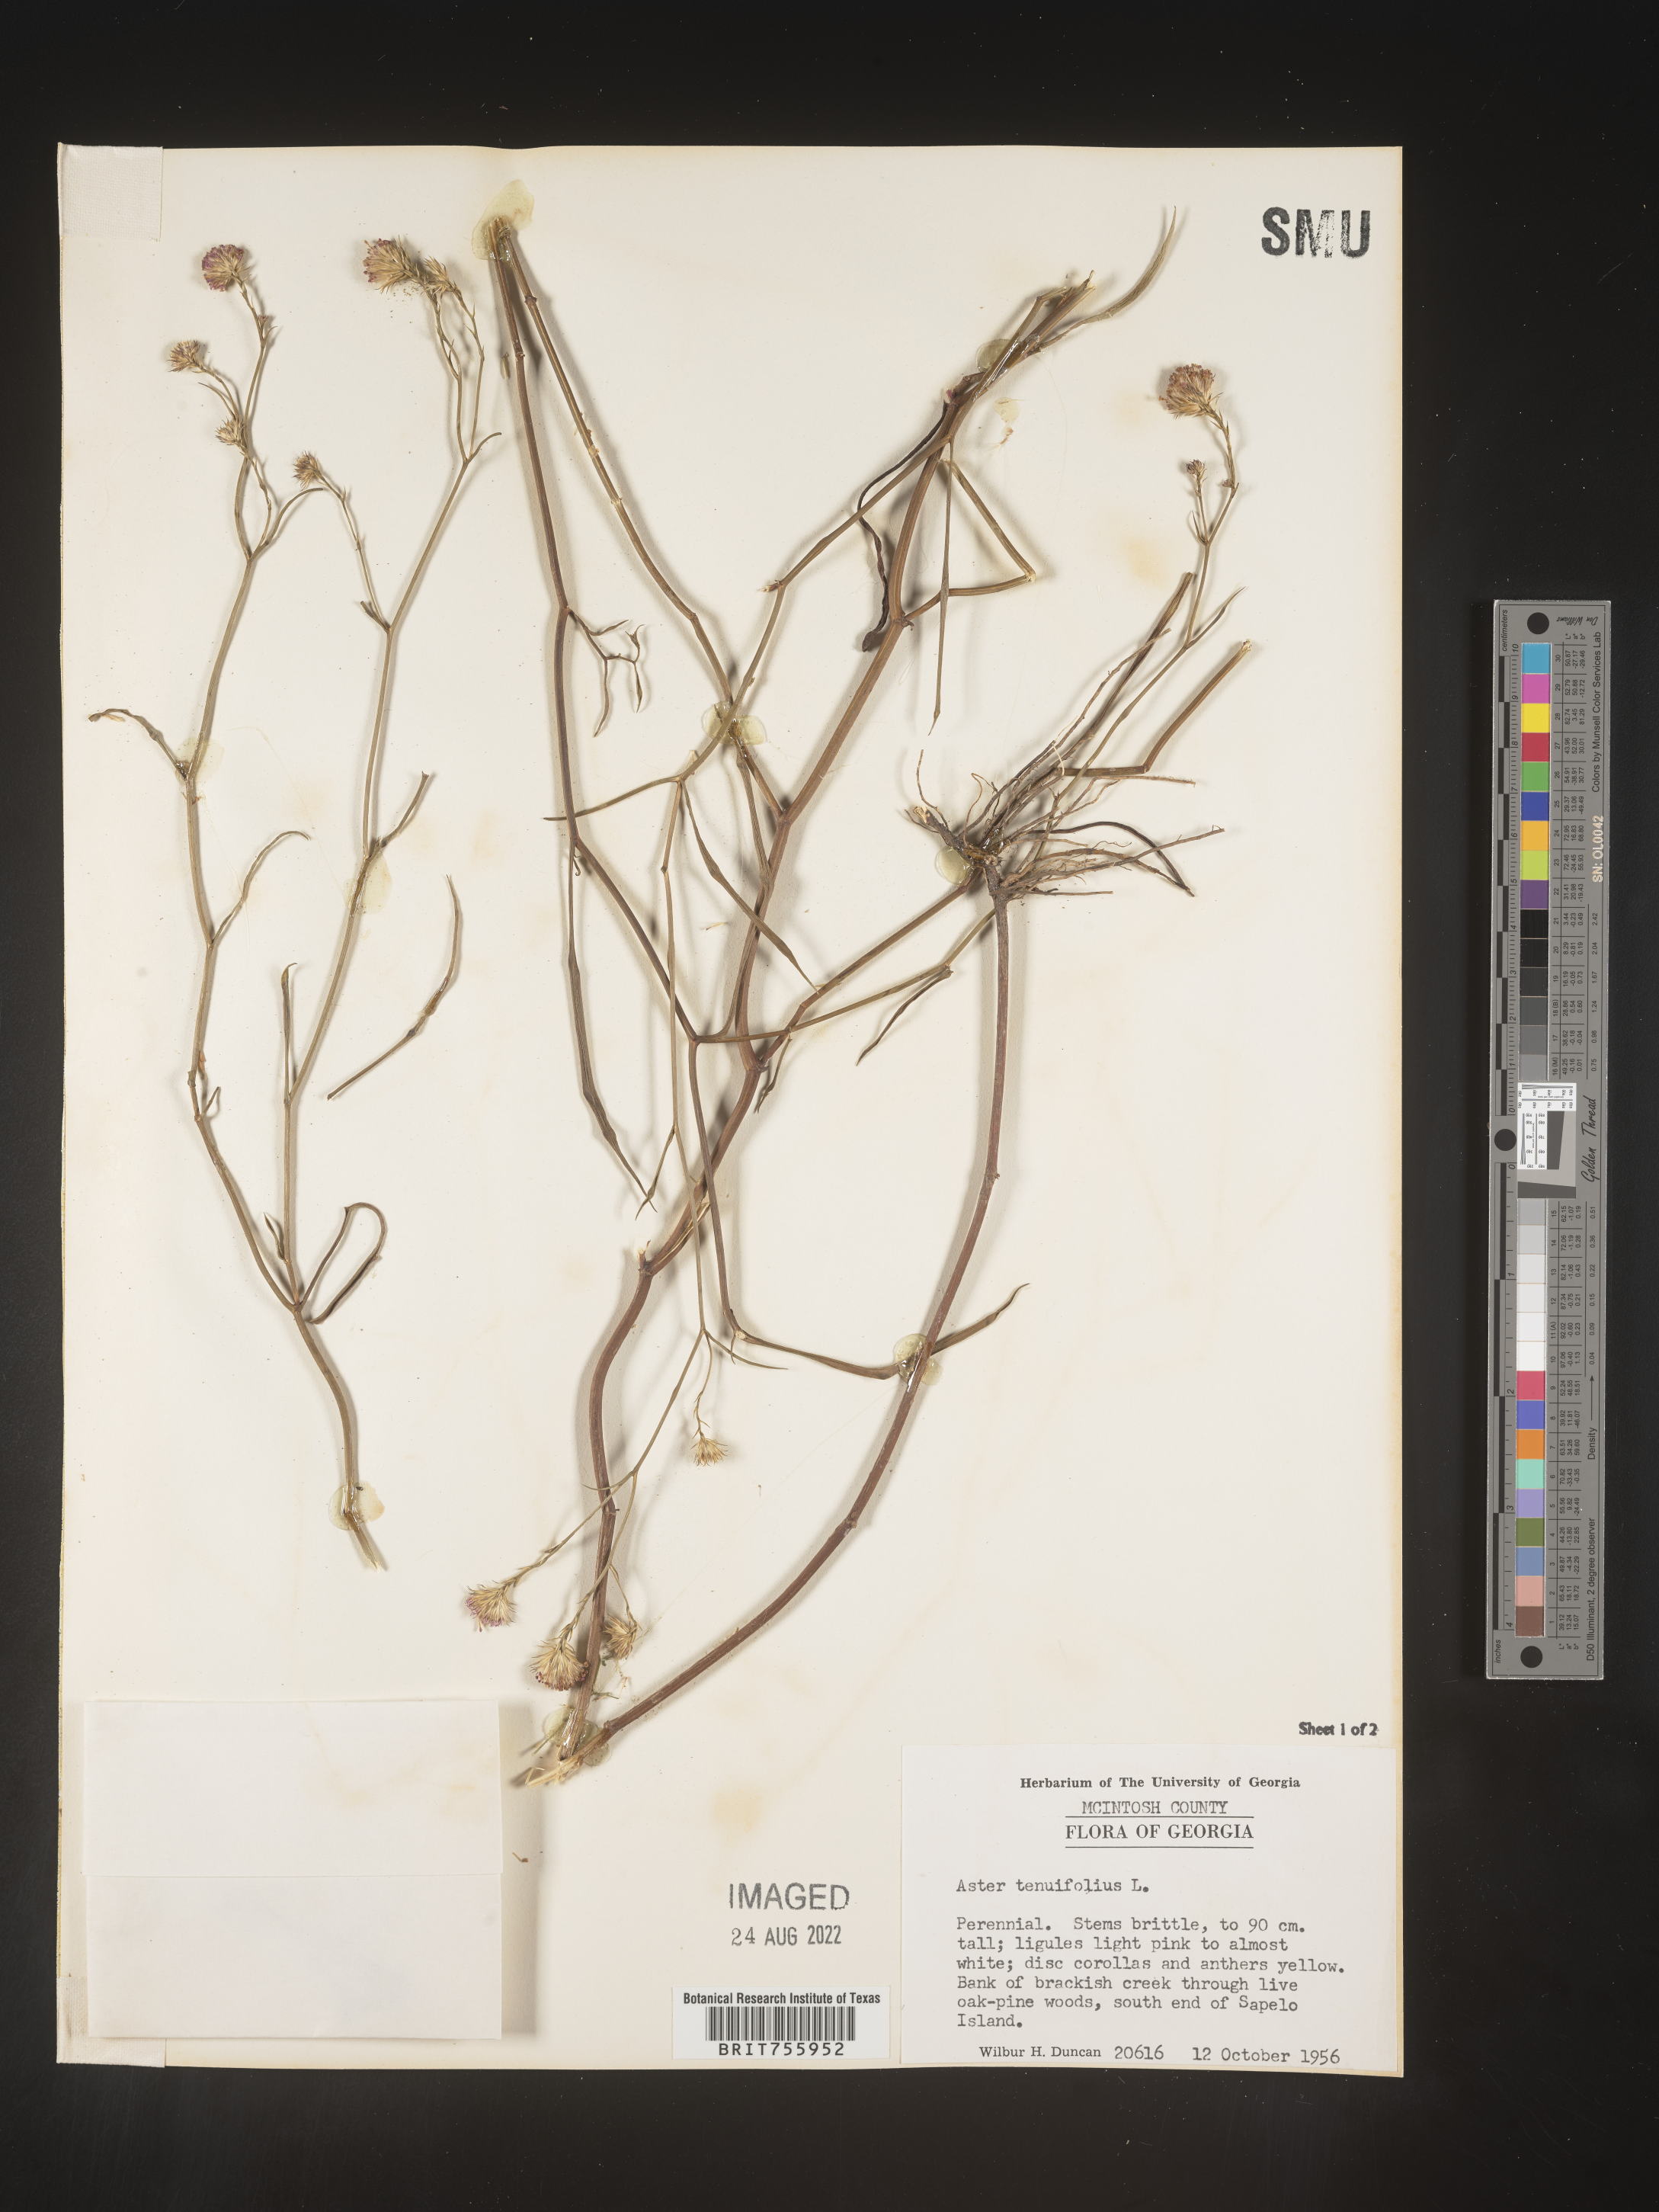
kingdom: Plantae
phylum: Tracheophyta
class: Magnoliopsida
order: Asterales
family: Asteraceae
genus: Symphyotrichum
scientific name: Symphyotrichum tenuifolium
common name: Perennial salt-marsh aster
